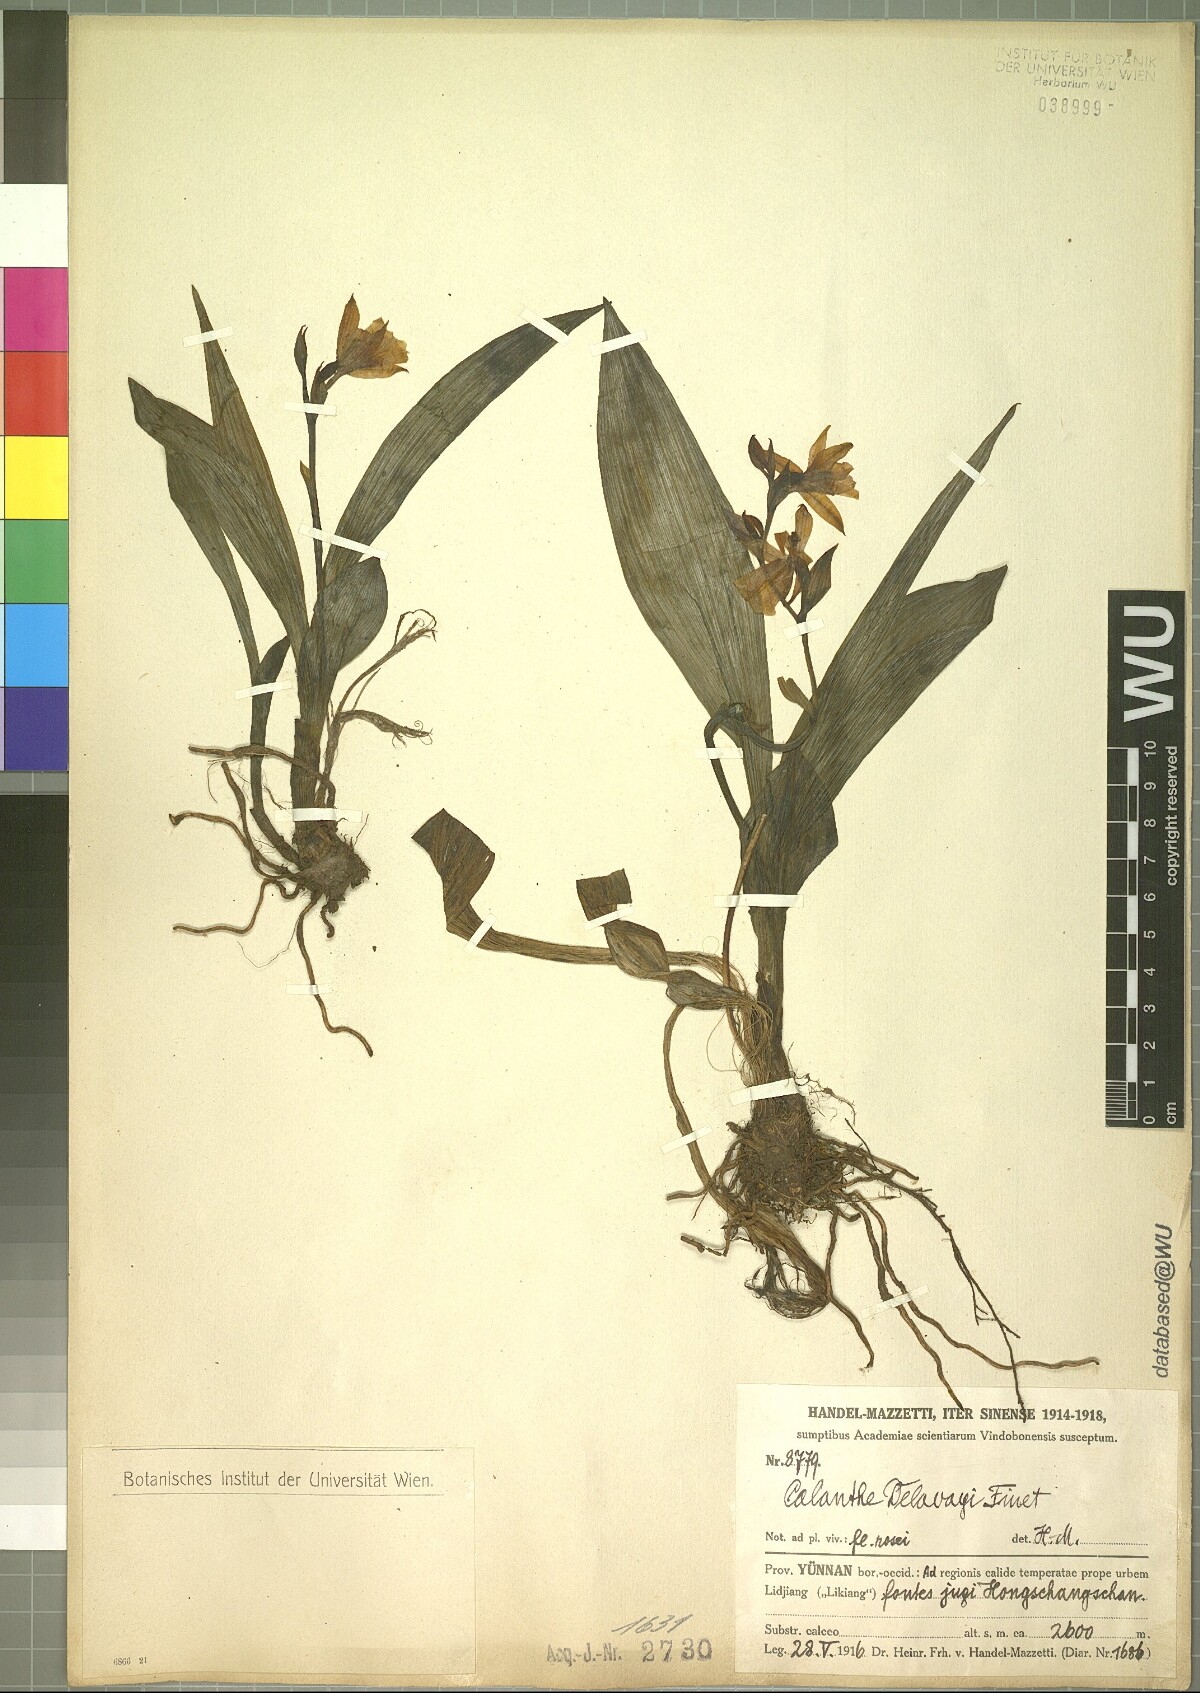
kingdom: Plantae
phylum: Tracheophyta
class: Liliopsida
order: Asparagales
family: Orchidaceae
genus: Calanthe
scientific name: Calanthe delavayi
